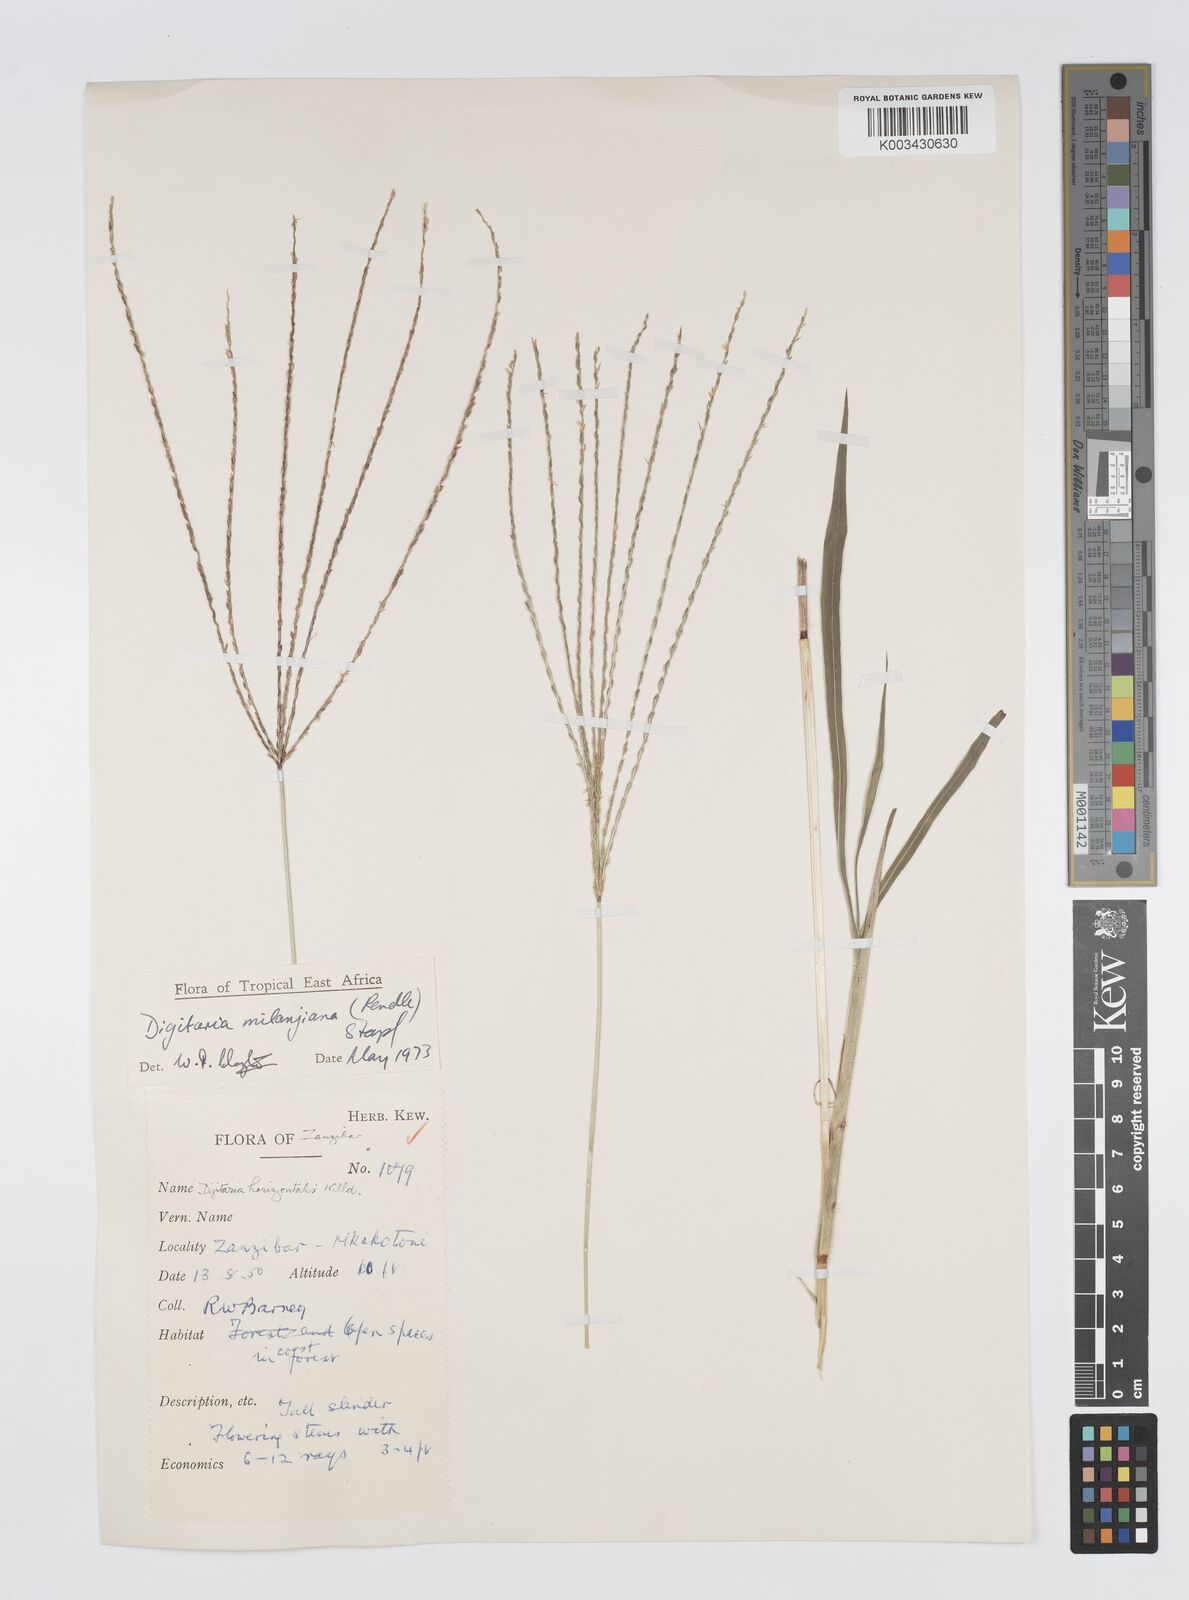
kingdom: Plantae
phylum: Tracheophyta
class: Liliopsida
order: Poales
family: Poaceae
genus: Digitaria
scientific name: Digitaria milanjiana
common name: Madagascar crabgrass
